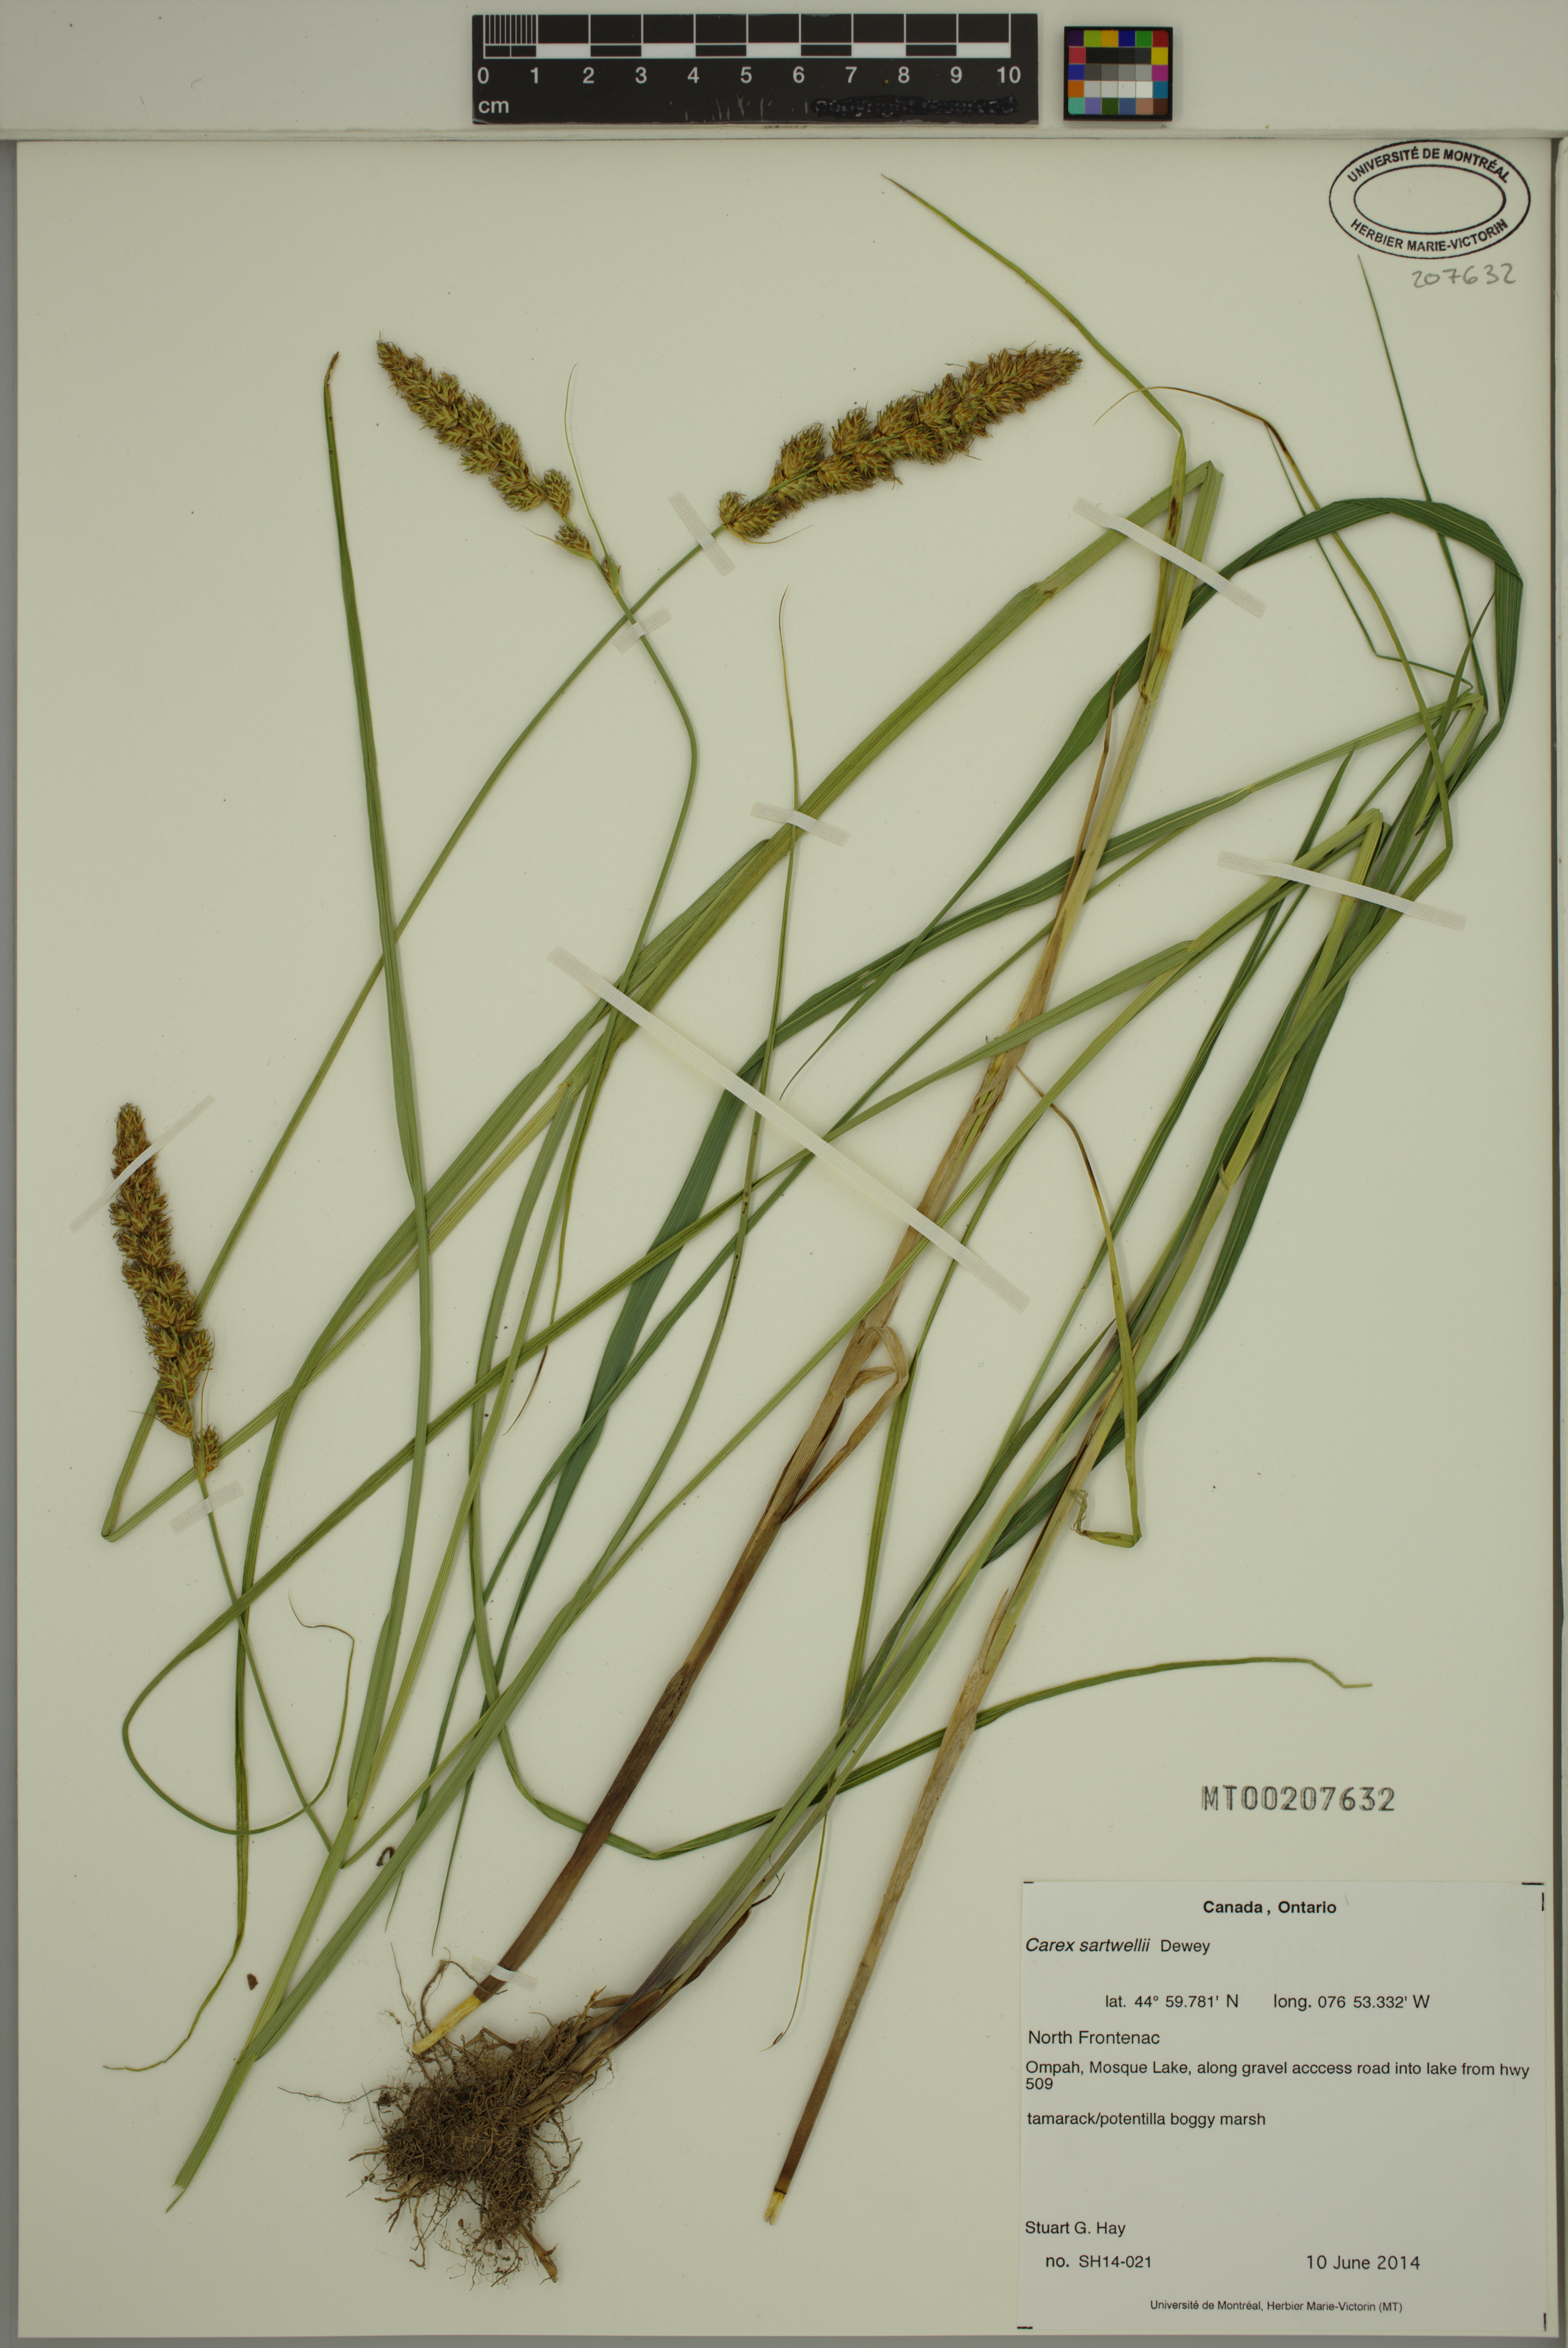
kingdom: Plantae
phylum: Tracheophyta
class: Liliopsida
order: Poales
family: Cyperaceae
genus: Carex
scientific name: Carex sartwellii
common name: Sartwell's sedge
